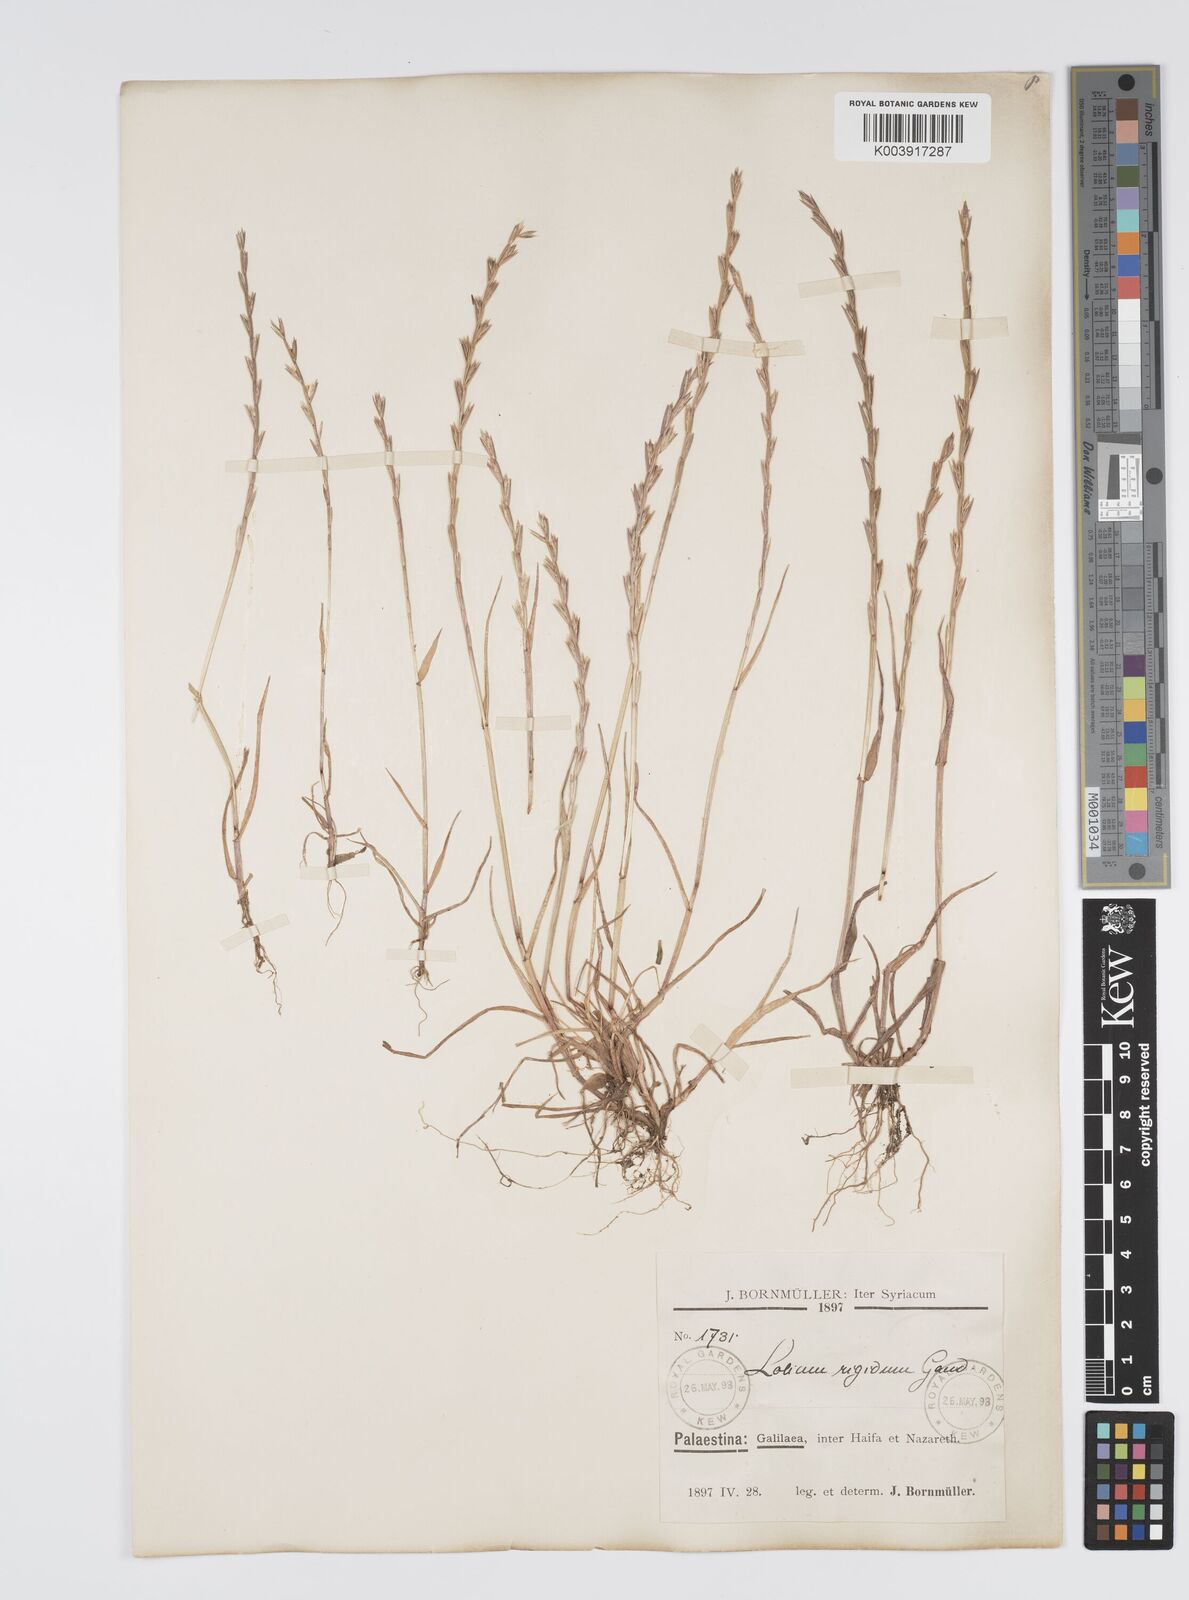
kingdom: Plantae
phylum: Tracheophyta
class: Liliopsida
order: Poales
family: Poaceae
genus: Lolium
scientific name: Lolium rigidum
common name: Wimmera ryegrass
